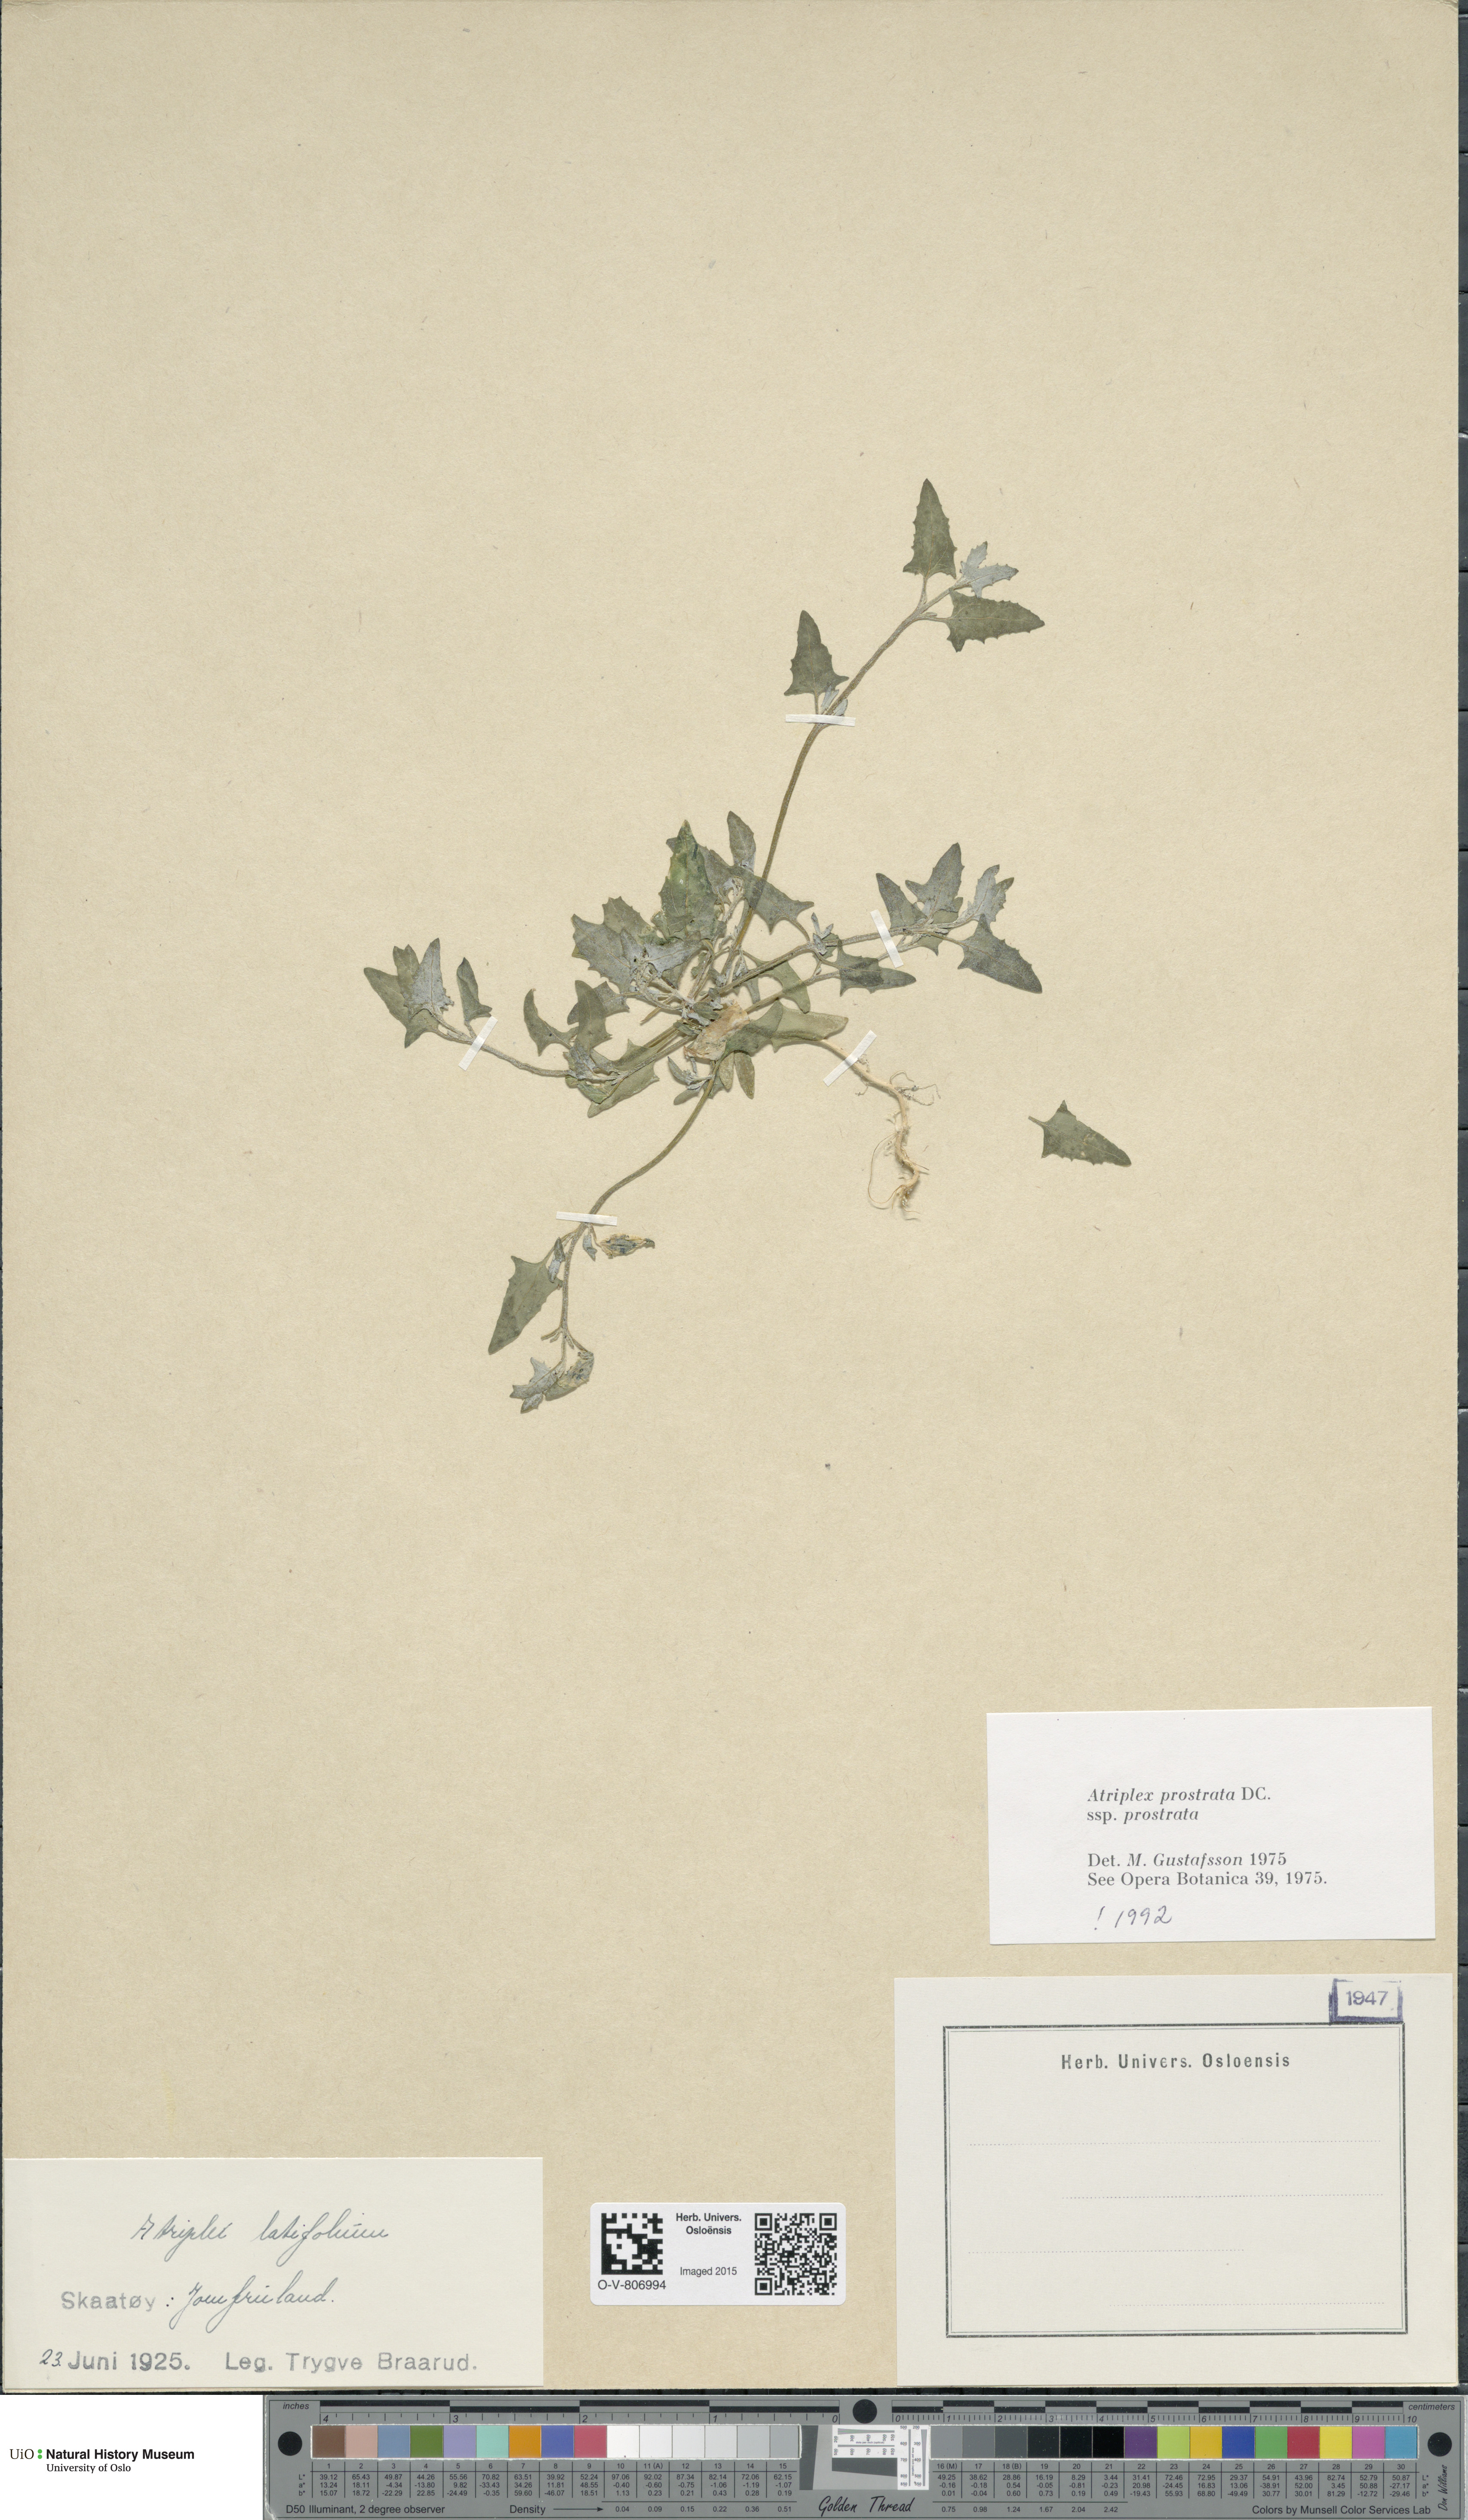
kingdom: Plantae
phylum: Tracheophyta
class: Magnoliopsida
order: Caryophyllales
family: Amaranthaceae
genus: Atriplex
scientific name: Atriplex prostrata
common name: Spear-leaved orache
